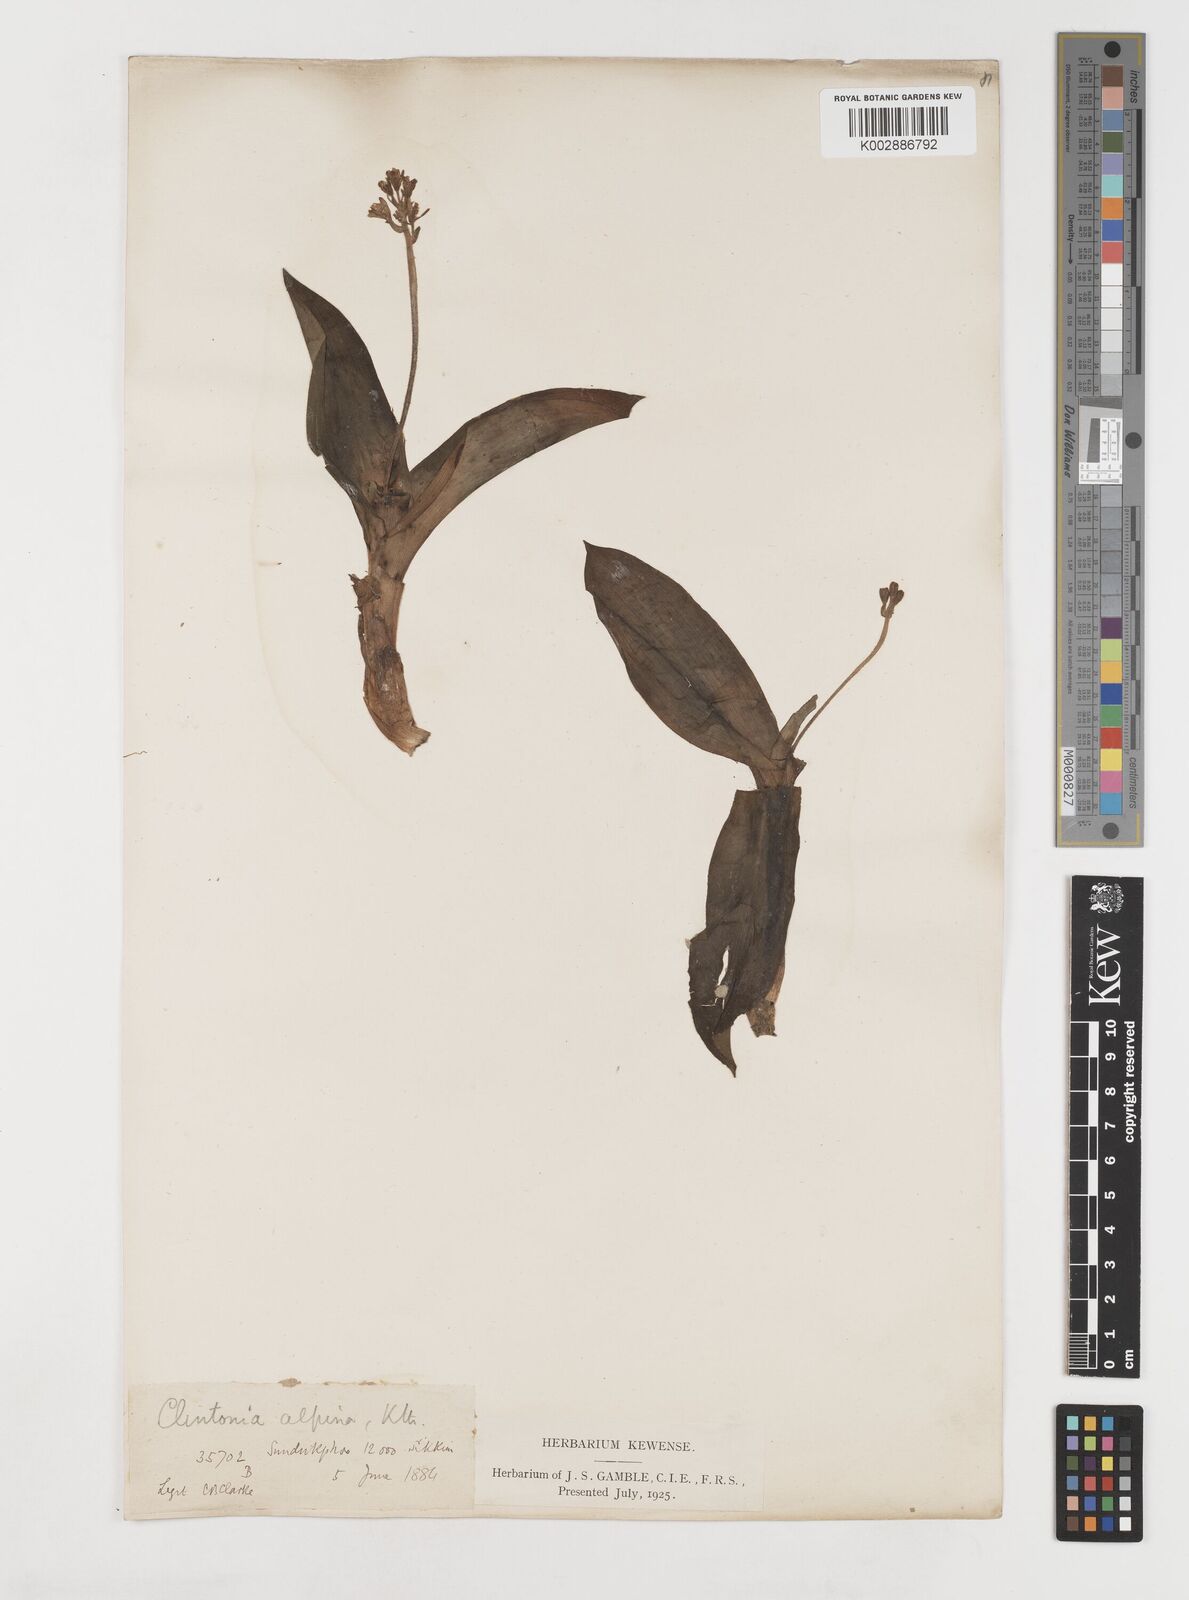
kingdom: Plantae
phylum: Tracheophyta
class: Liliopsida
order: Liliales
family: Liliaceae
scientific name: Liliaceae
